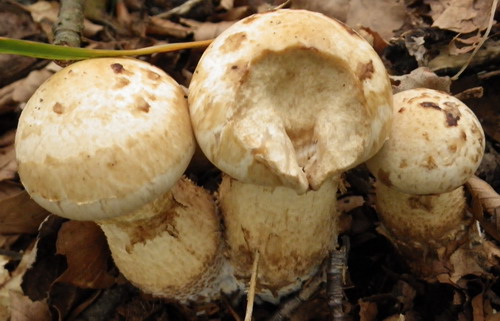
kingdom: Fungi
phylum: Basidiomycota
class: Agaricomycetes
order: Agaricales
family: Hymenogastraceae
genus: Hebeloma
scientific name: Hebeloma radicosum
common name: pælerods-tåreblad
